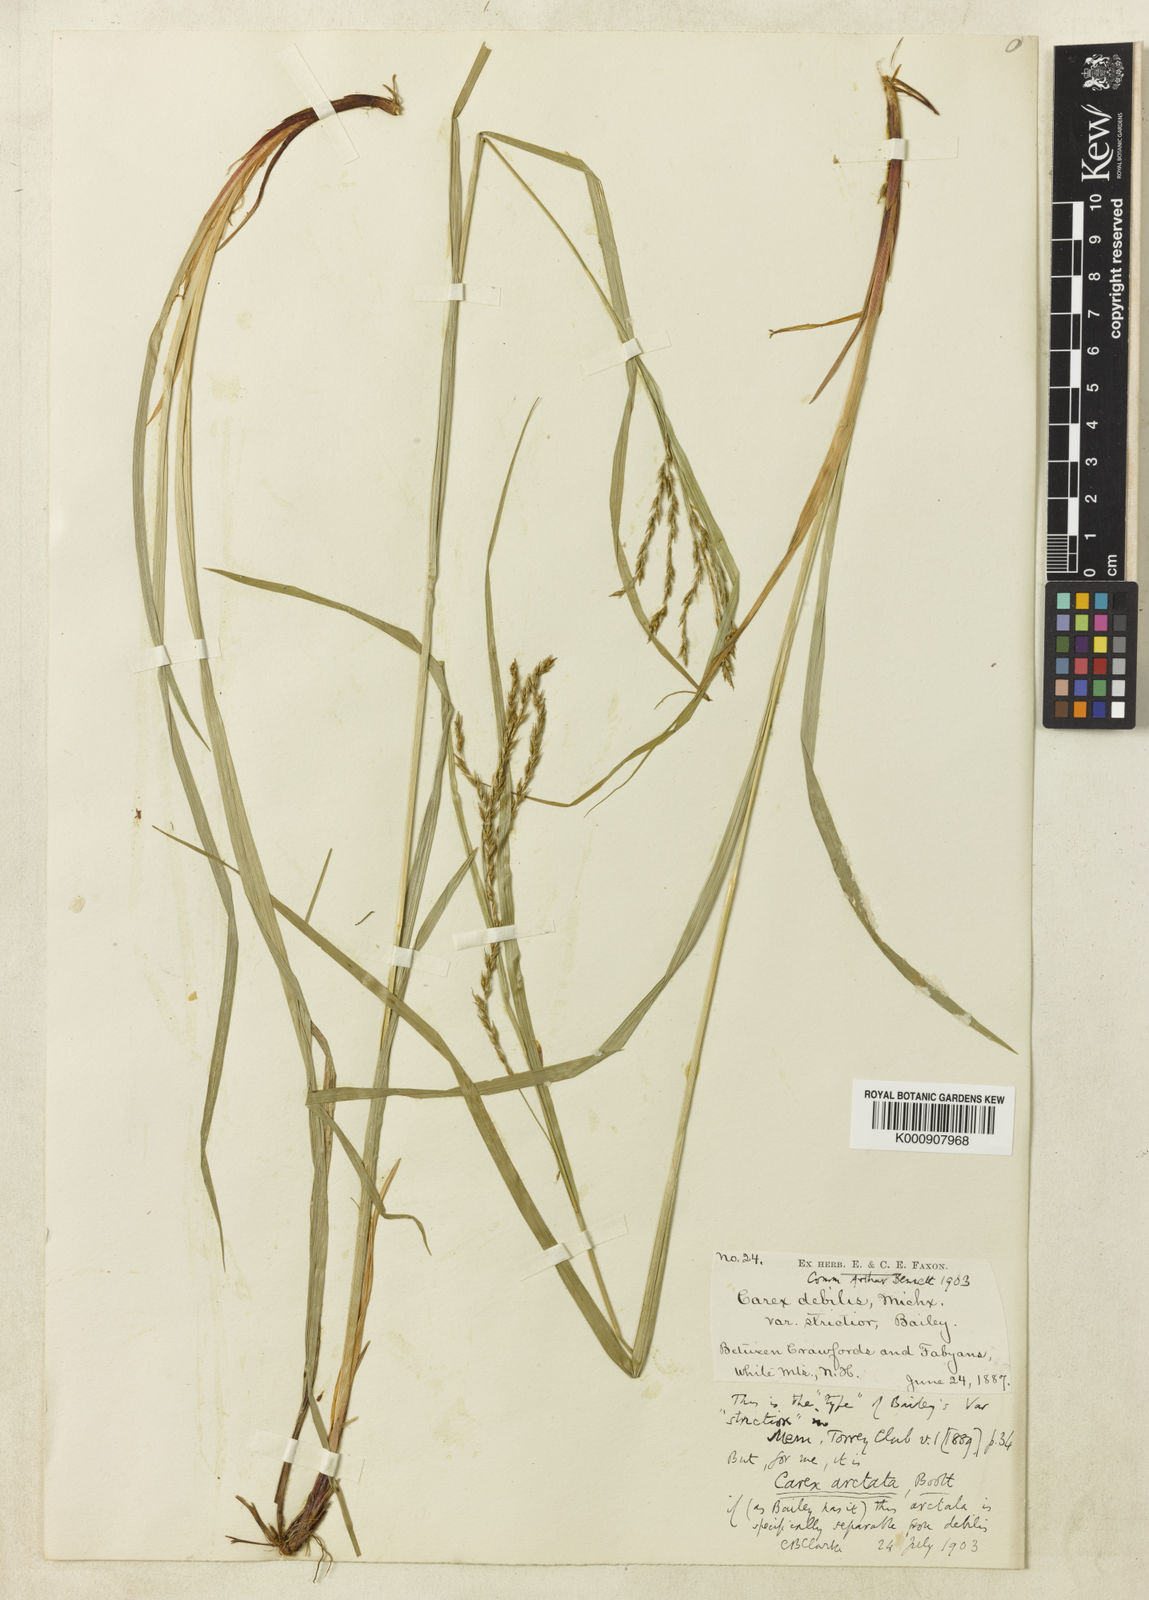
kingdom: Plantae
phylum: Tracheophyta
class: Liliopsida
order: Poales
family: Cyperaceae
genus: Carex
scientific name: Carex debilis
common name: White-edge sedge
